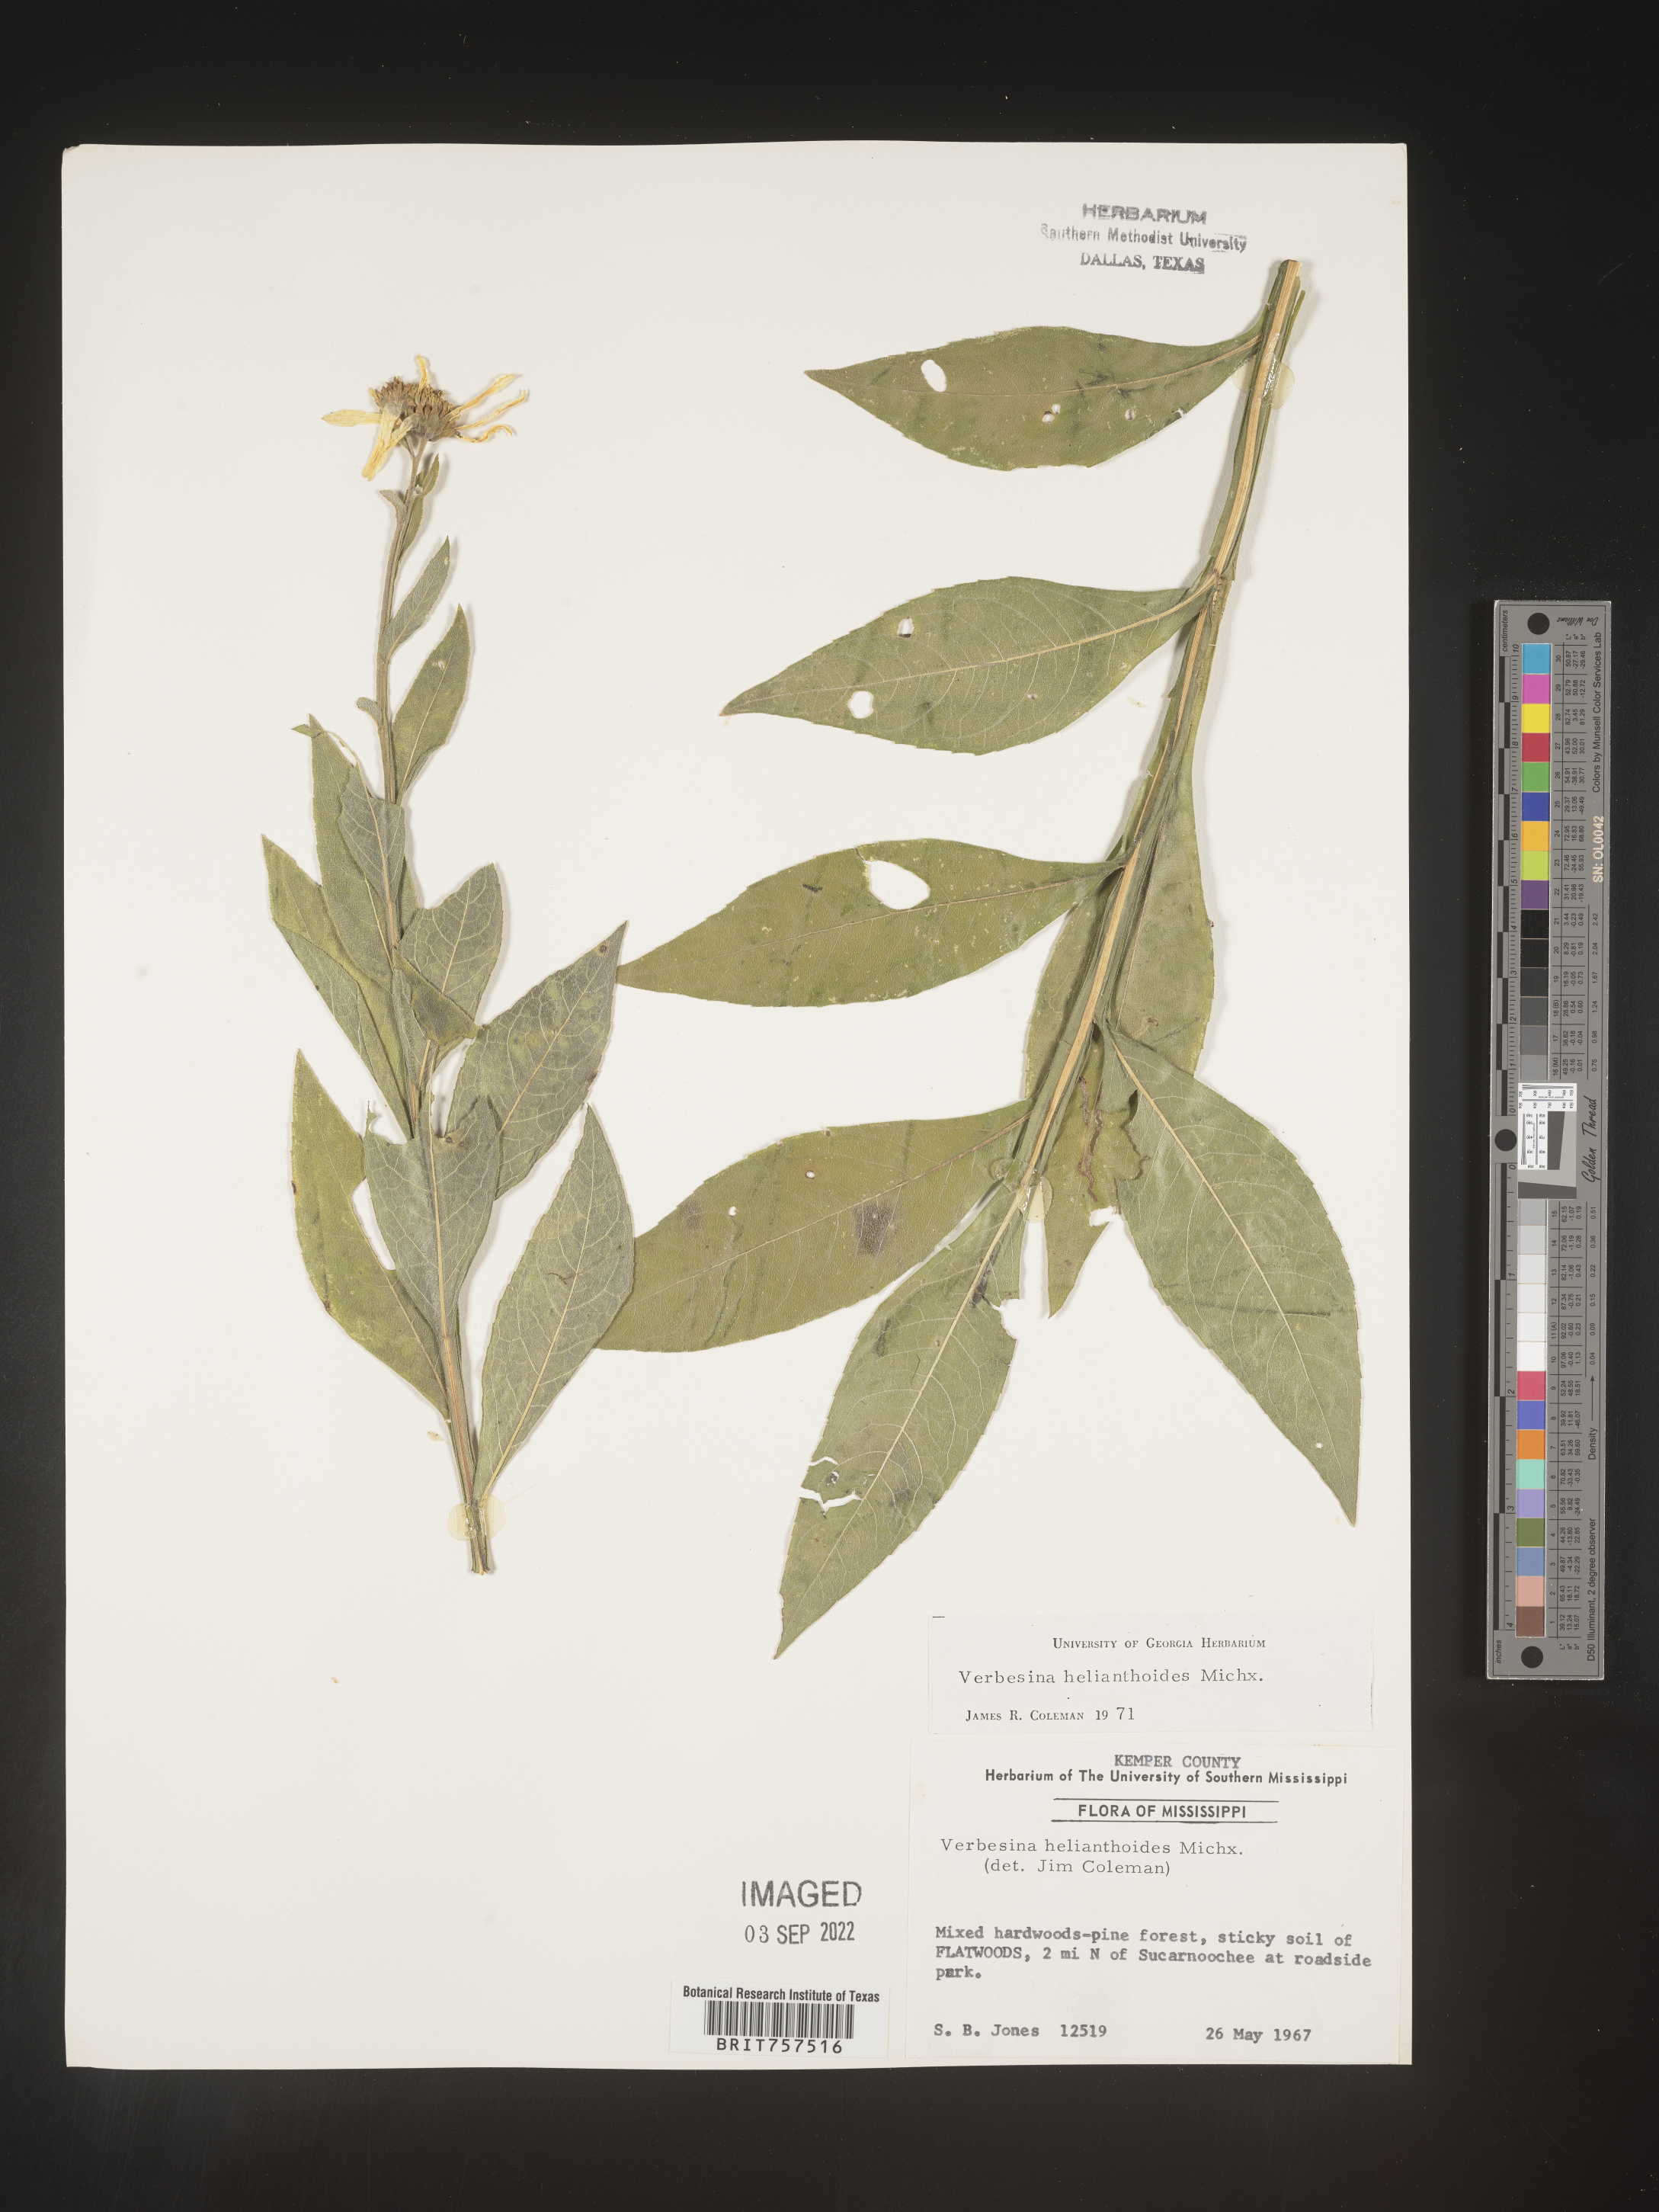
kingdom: Plantae
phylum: Tracheophyta
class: Magnoliopsida
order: Asterales
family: Asteraceae
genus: Verbesina
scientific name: Verbesina helianthoides
